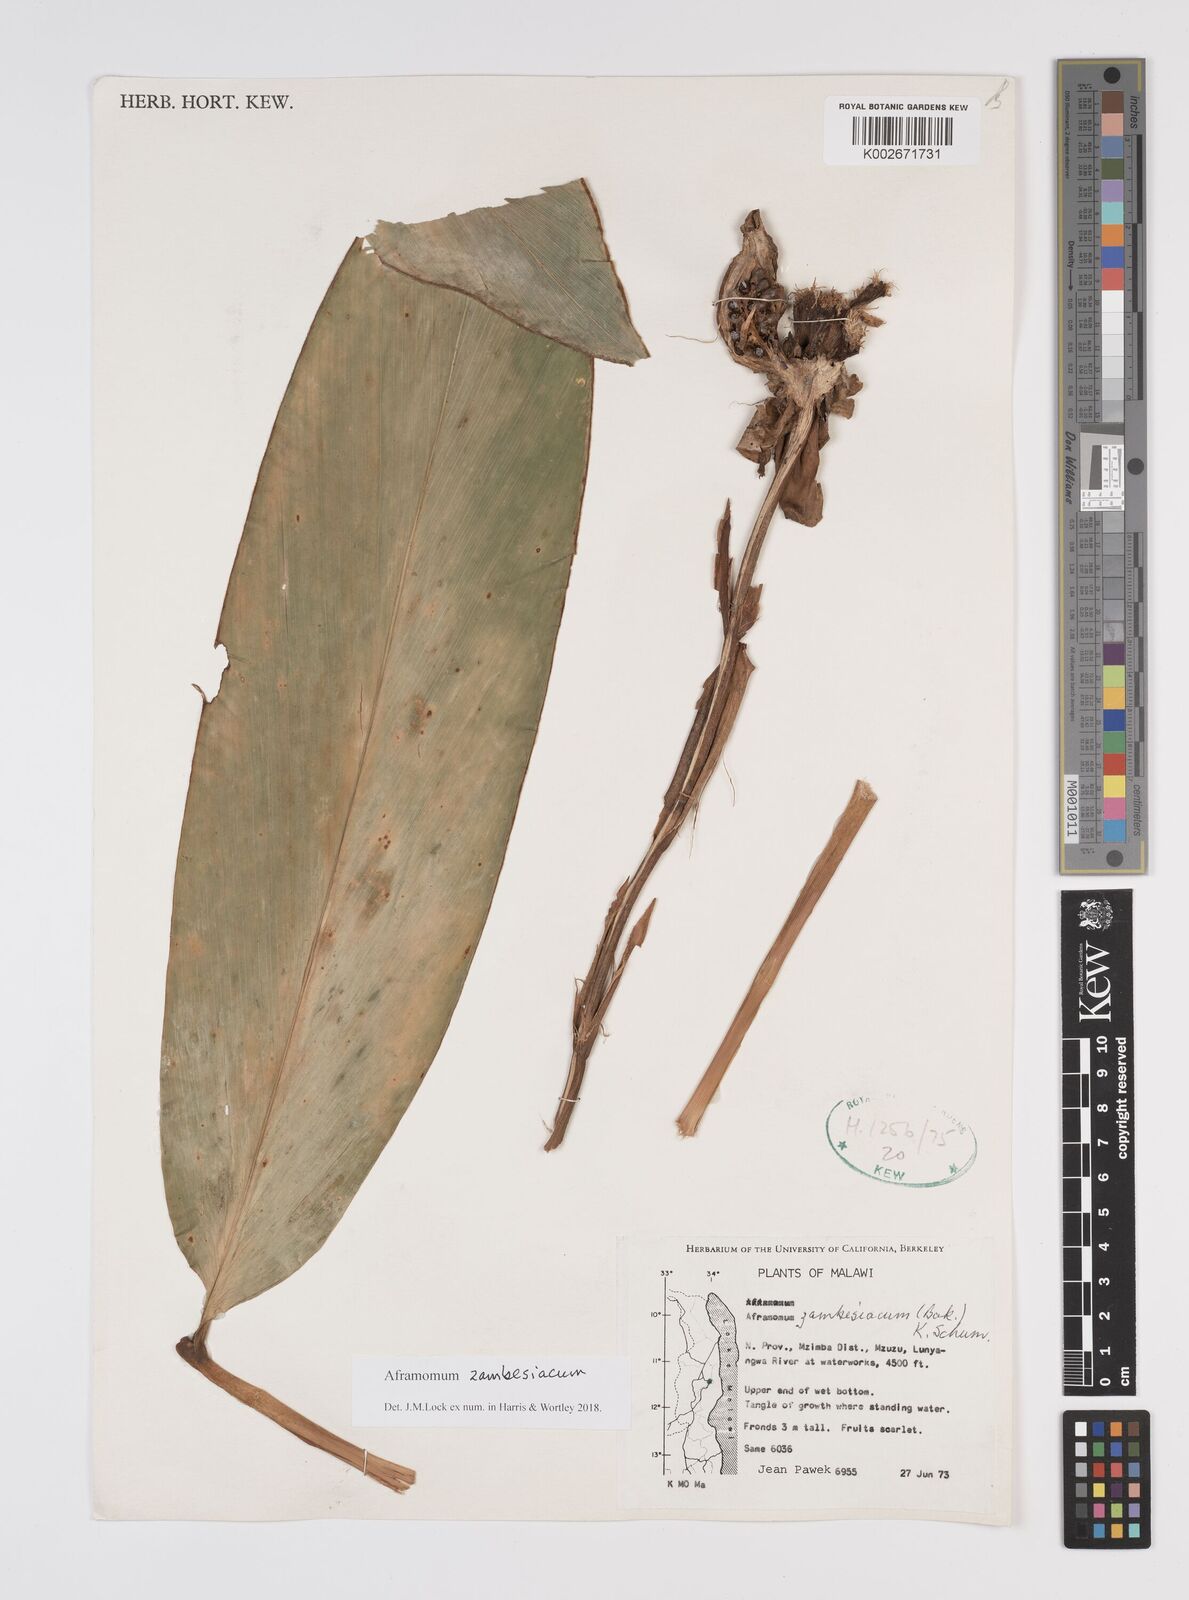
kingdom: Plantae
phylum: Tracheophyta
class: Liliopsida
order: Zingiberales
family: Zingiberaceae
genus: Aframomum
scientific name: Aframomum zambesiacum
